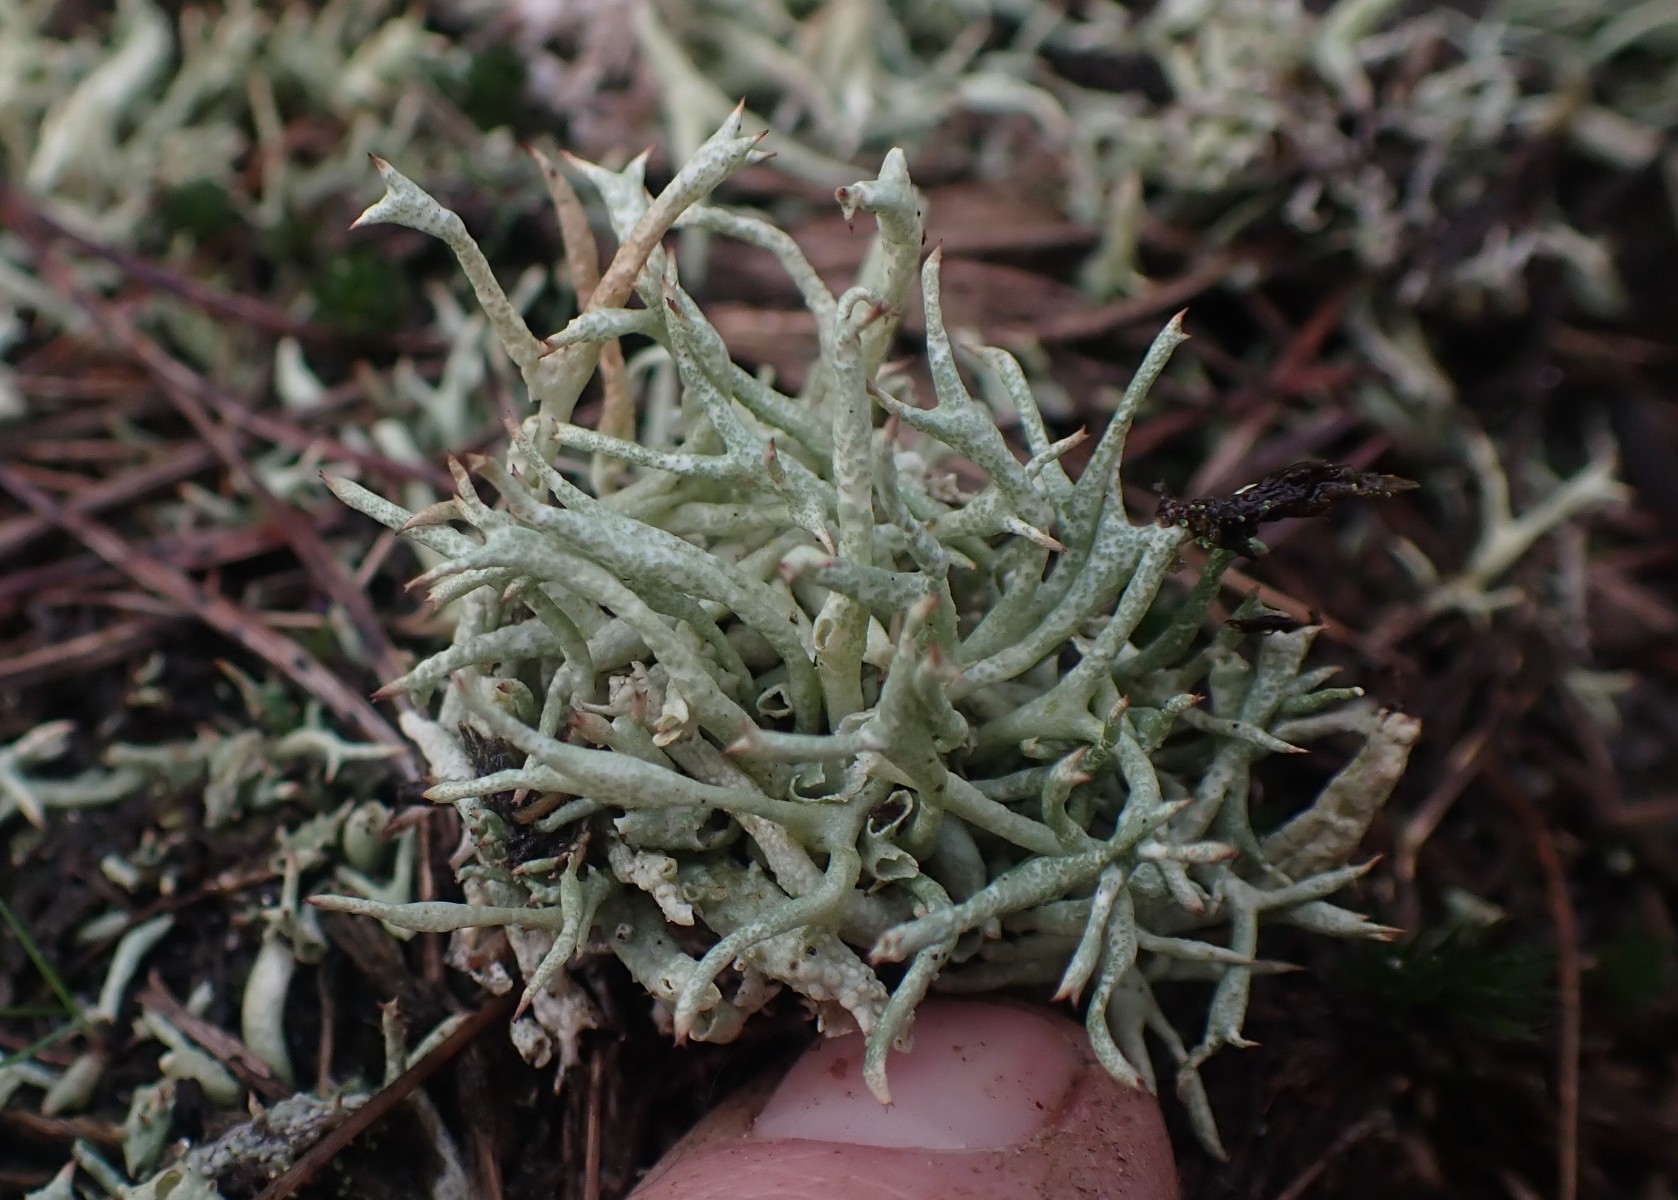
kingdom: Fungi
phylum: Ascomycota
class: Lecanoromycetes
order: Lecanorales
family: Cladoniaceae
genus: Cladonia
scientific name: Cladonia uncialis
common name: pigget bægerlav
